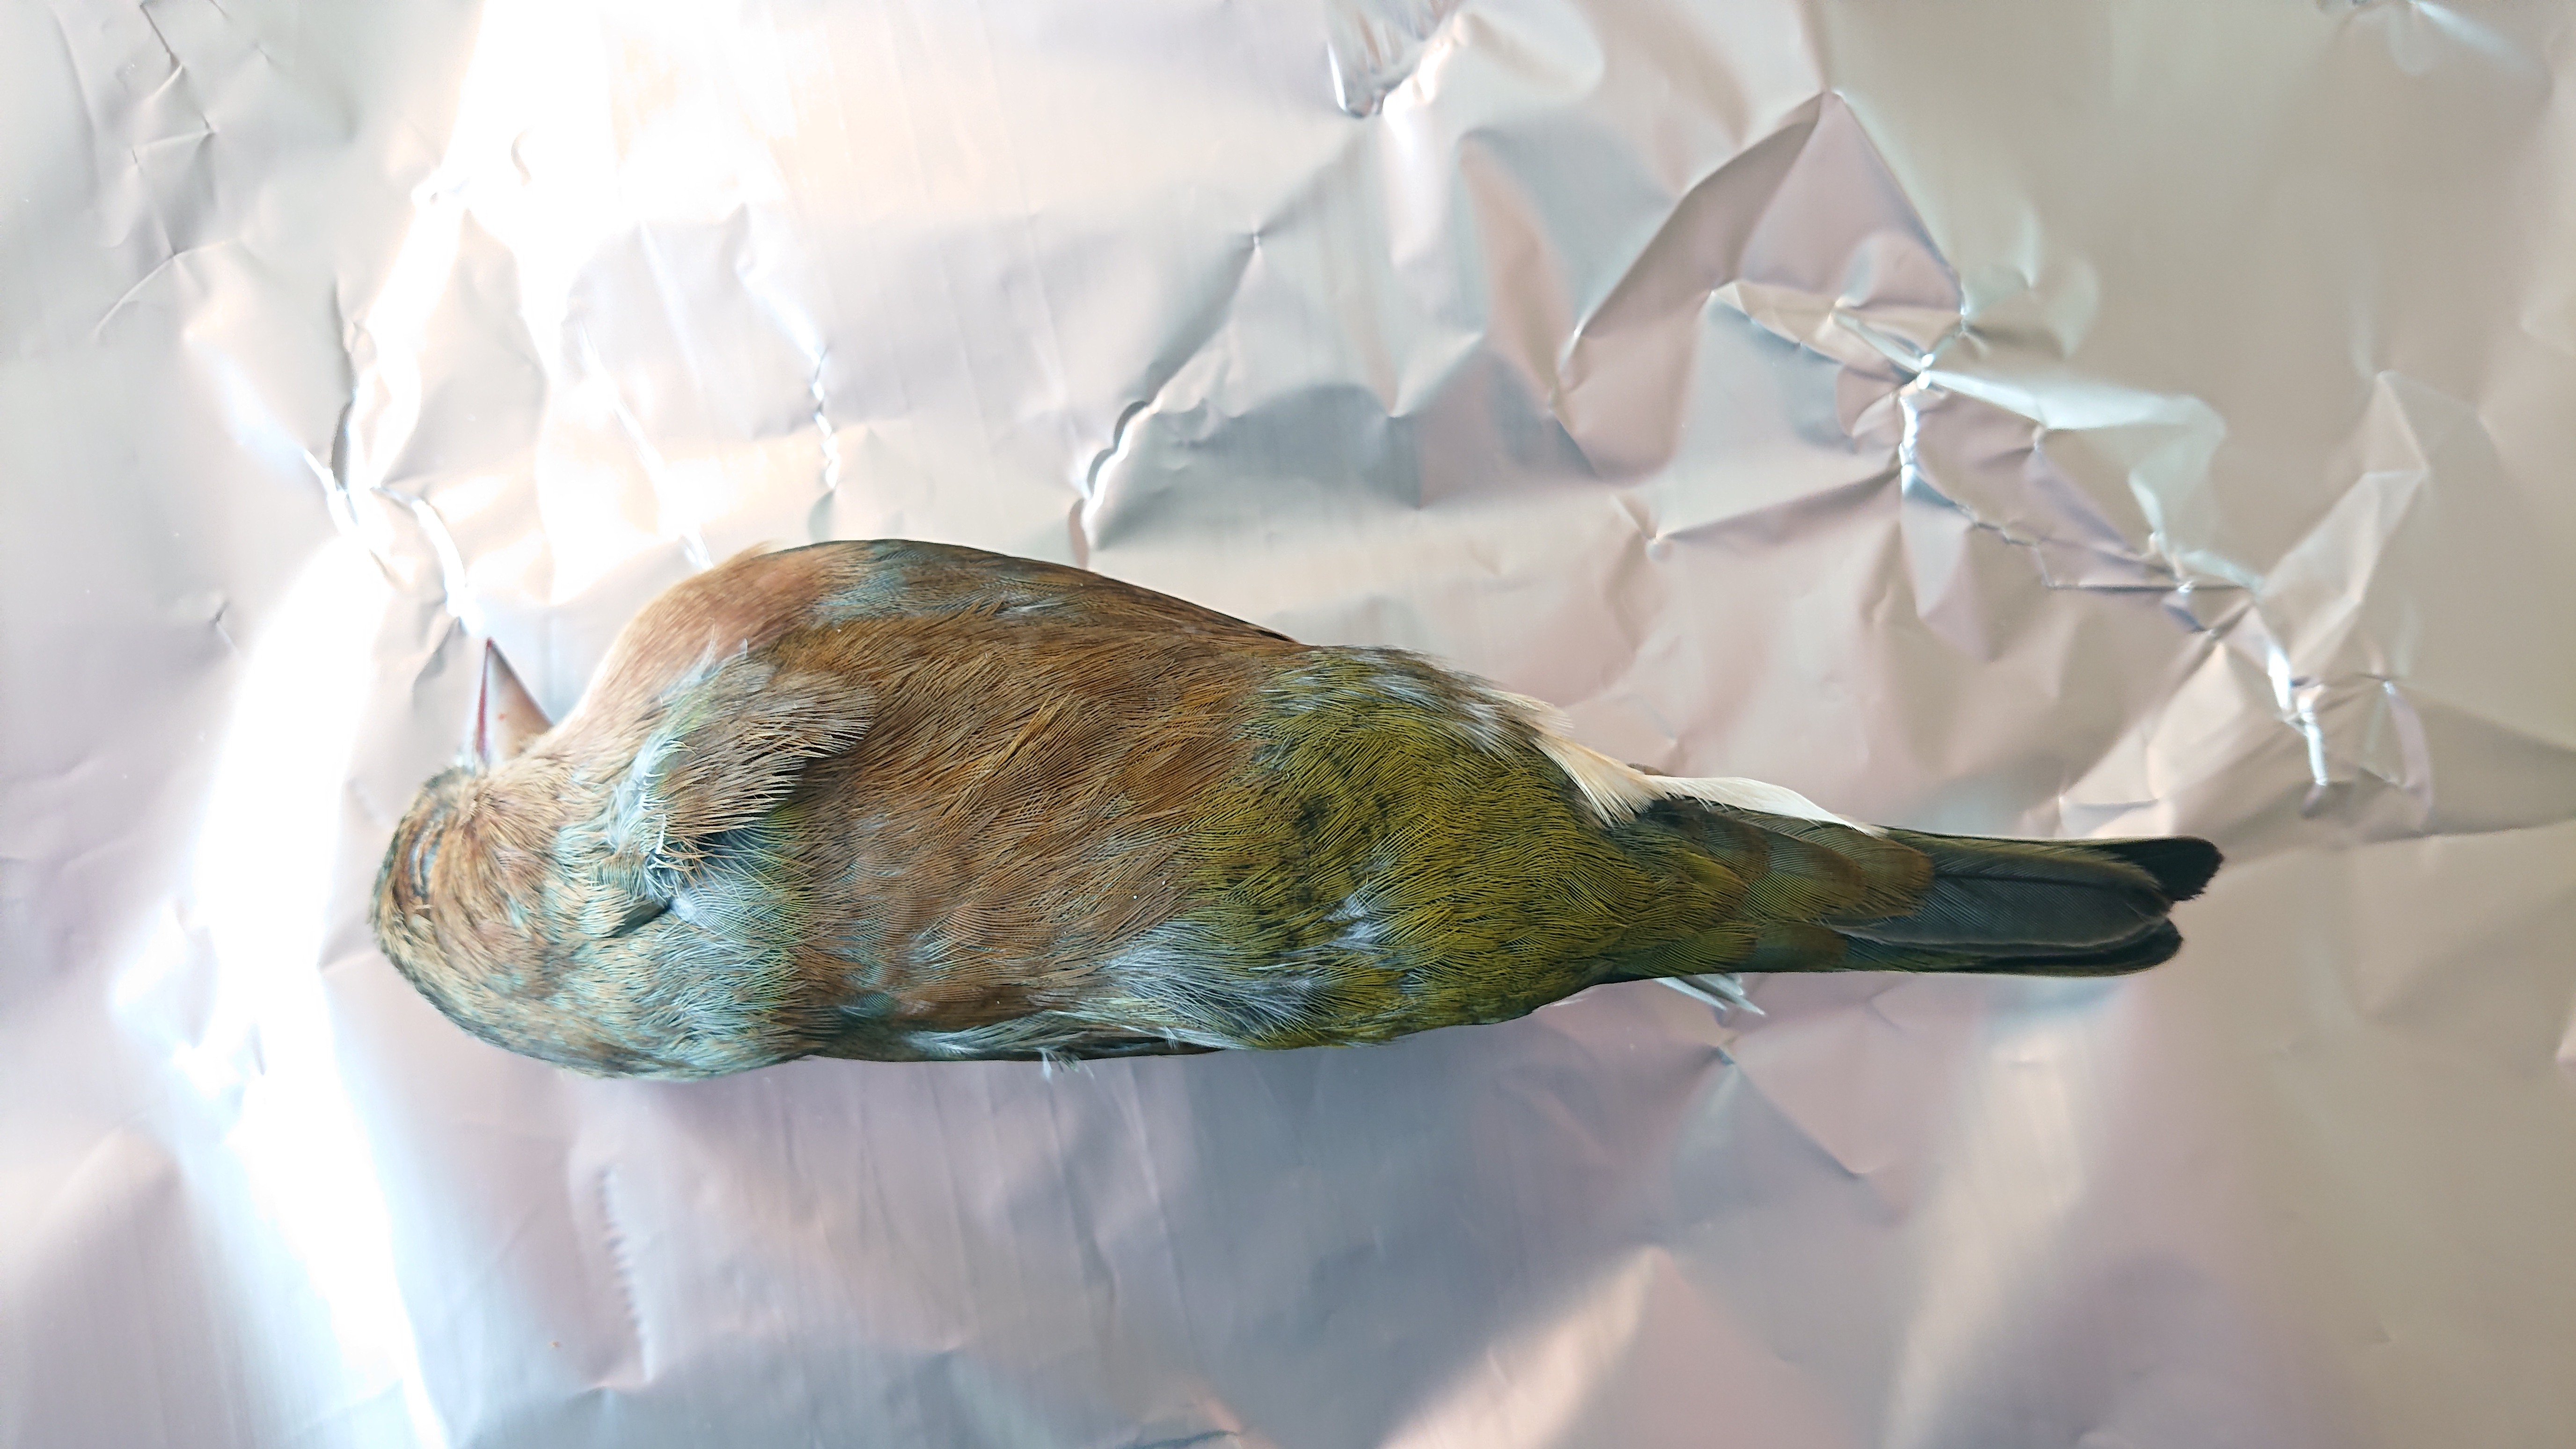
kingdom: Animalia
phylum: Chordata
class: Aves
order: Passeriformes
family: Fringillidae
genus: Fringilla
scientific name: Fringilla coelebs
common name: Common chaffinch
